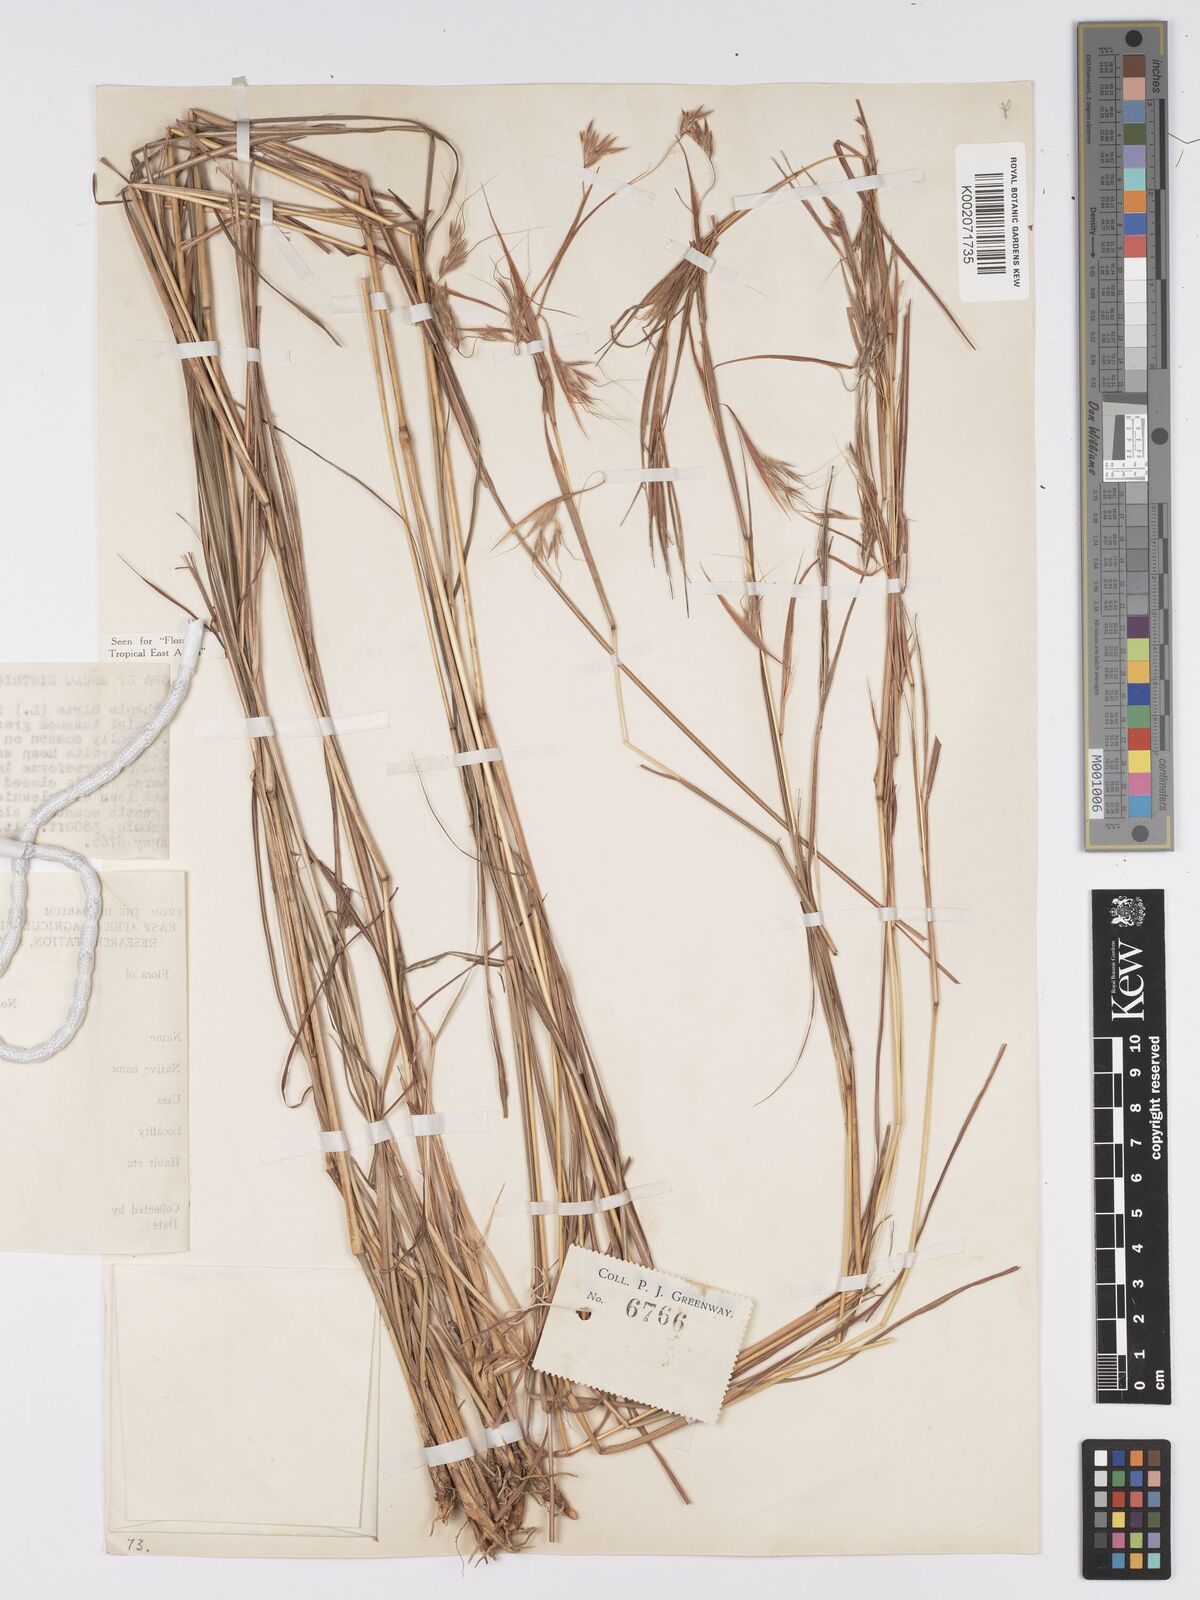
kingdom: Plantae
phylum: Tracheophyta
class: Liliopsida
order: Poales
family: Poaceae
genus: Hyparrhenia
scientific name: Hyparrhenia hirta
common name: Thatching grass
